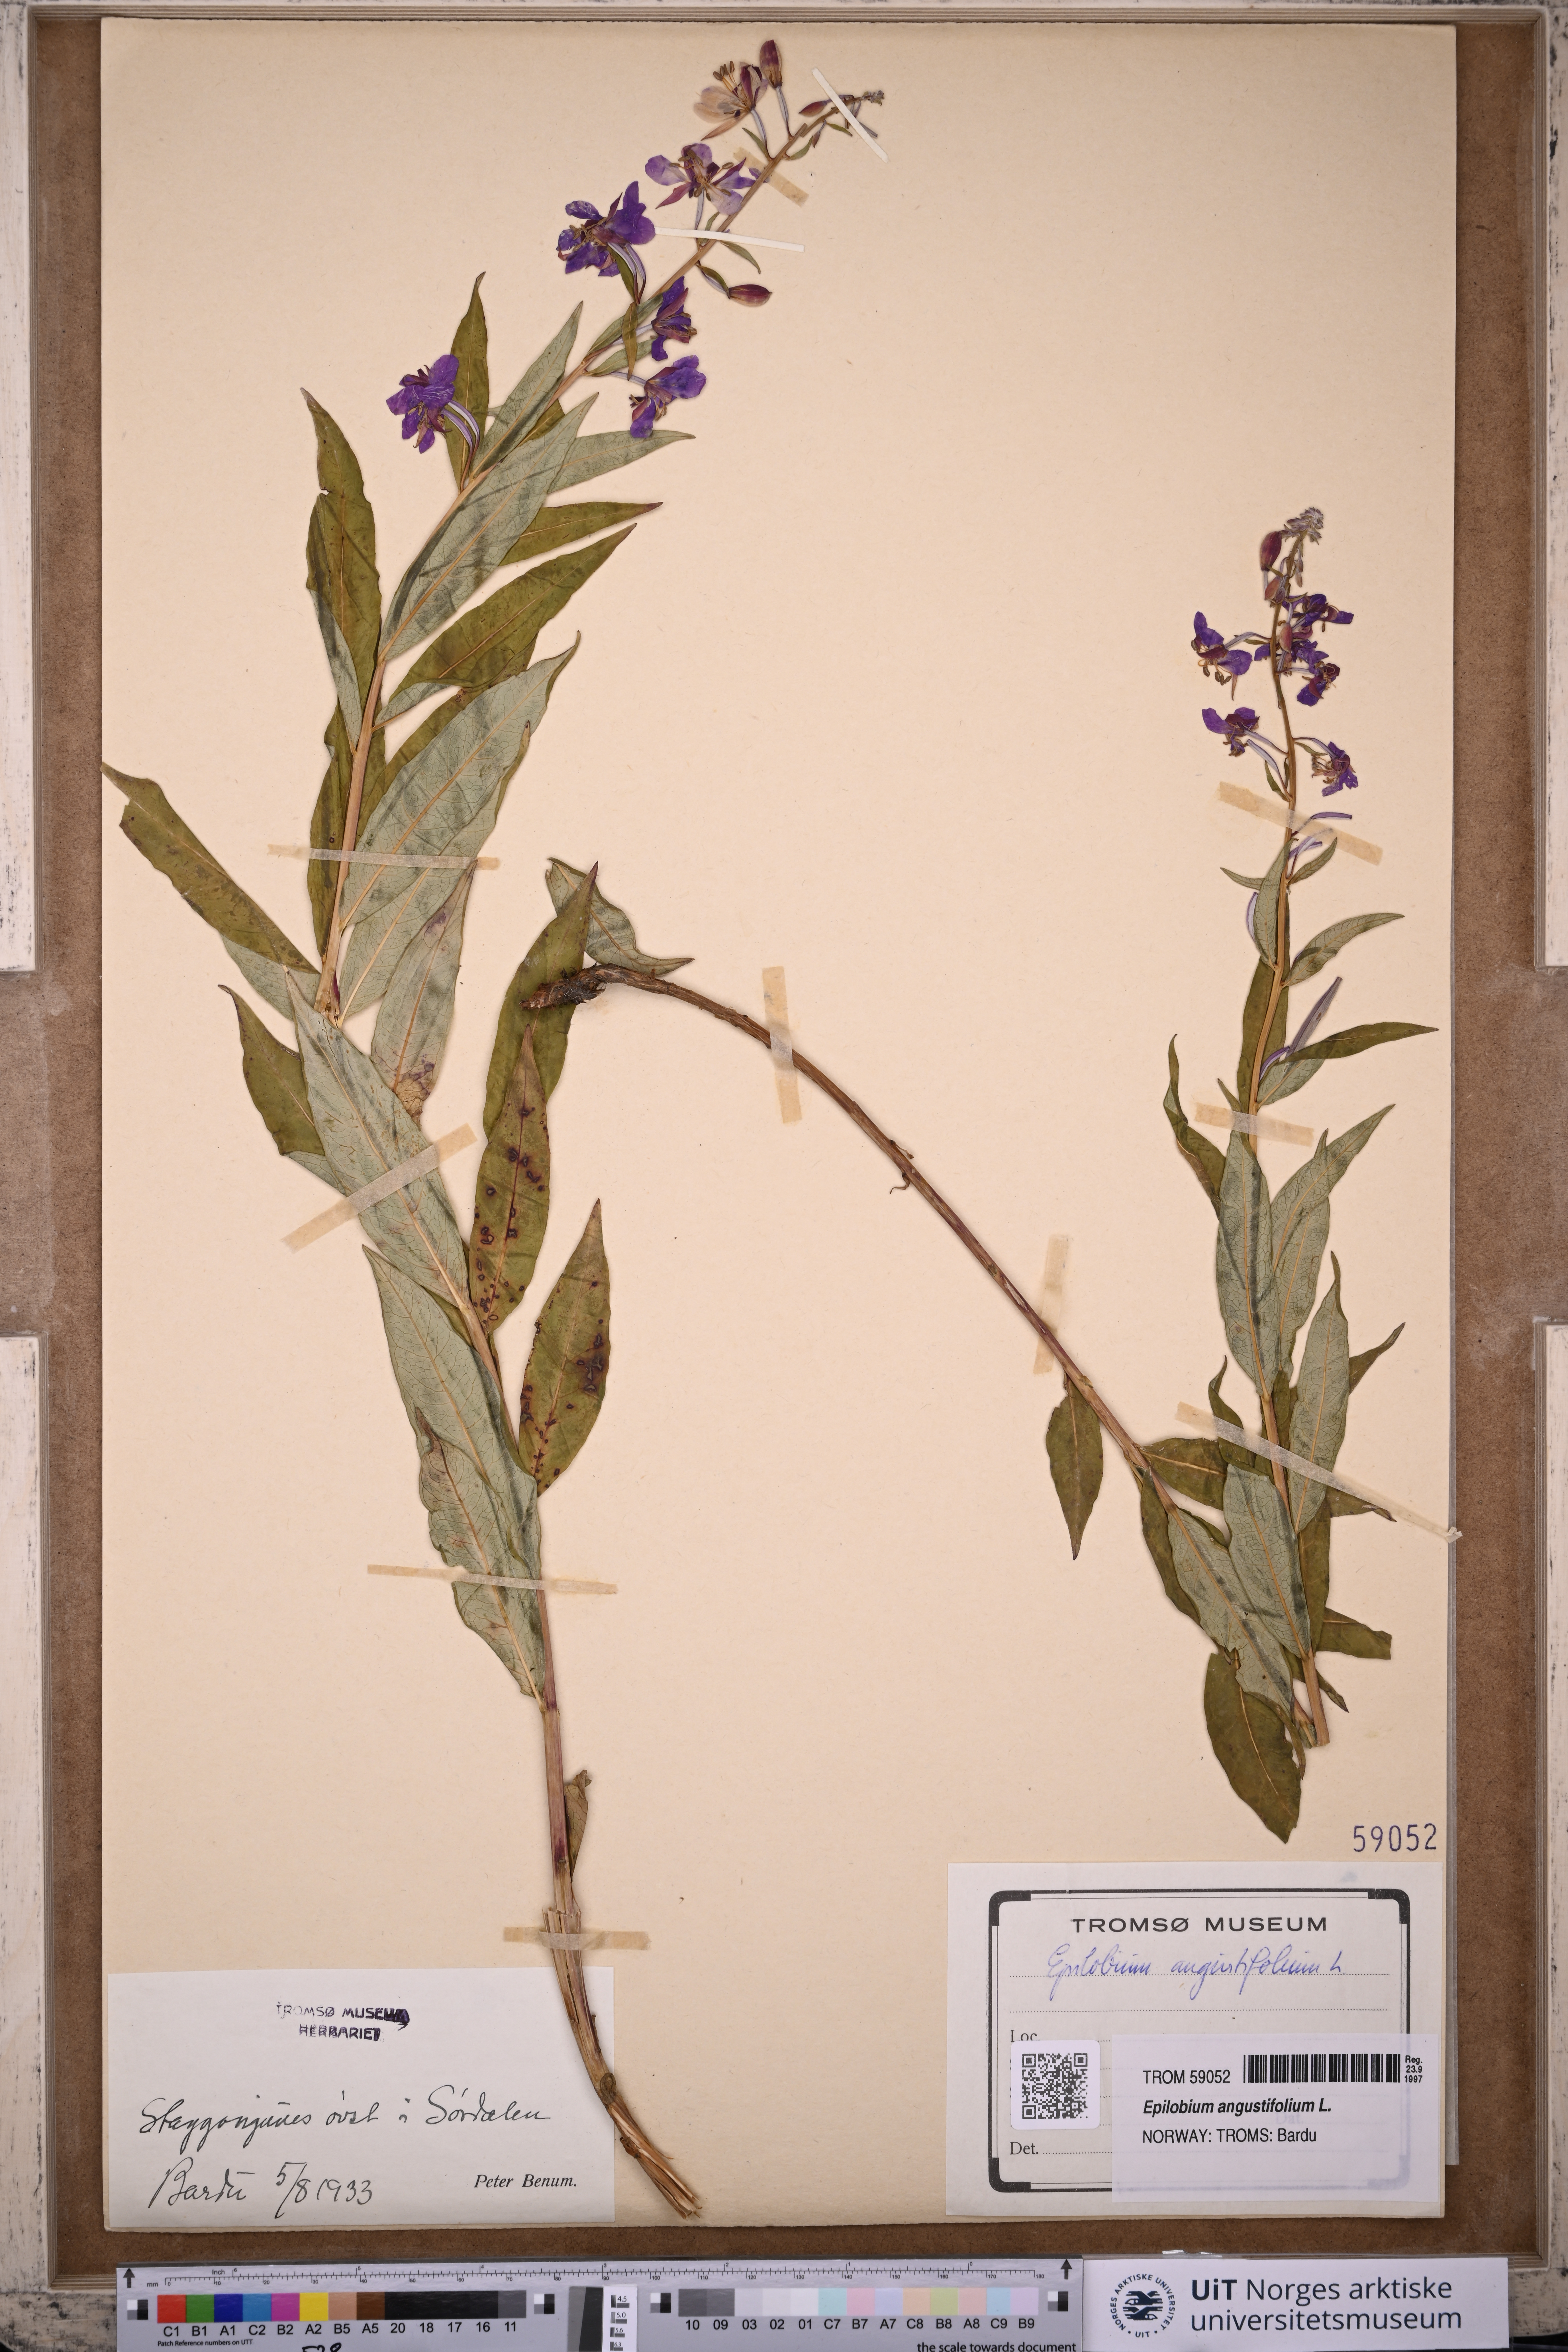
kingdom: Plantae
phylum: Tracheophyta
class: Magnoliopsida
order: Myrtales
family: Onagraceae
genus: Chamaenerion
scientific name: Chamaenerion angustifolium
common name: Fireweed
